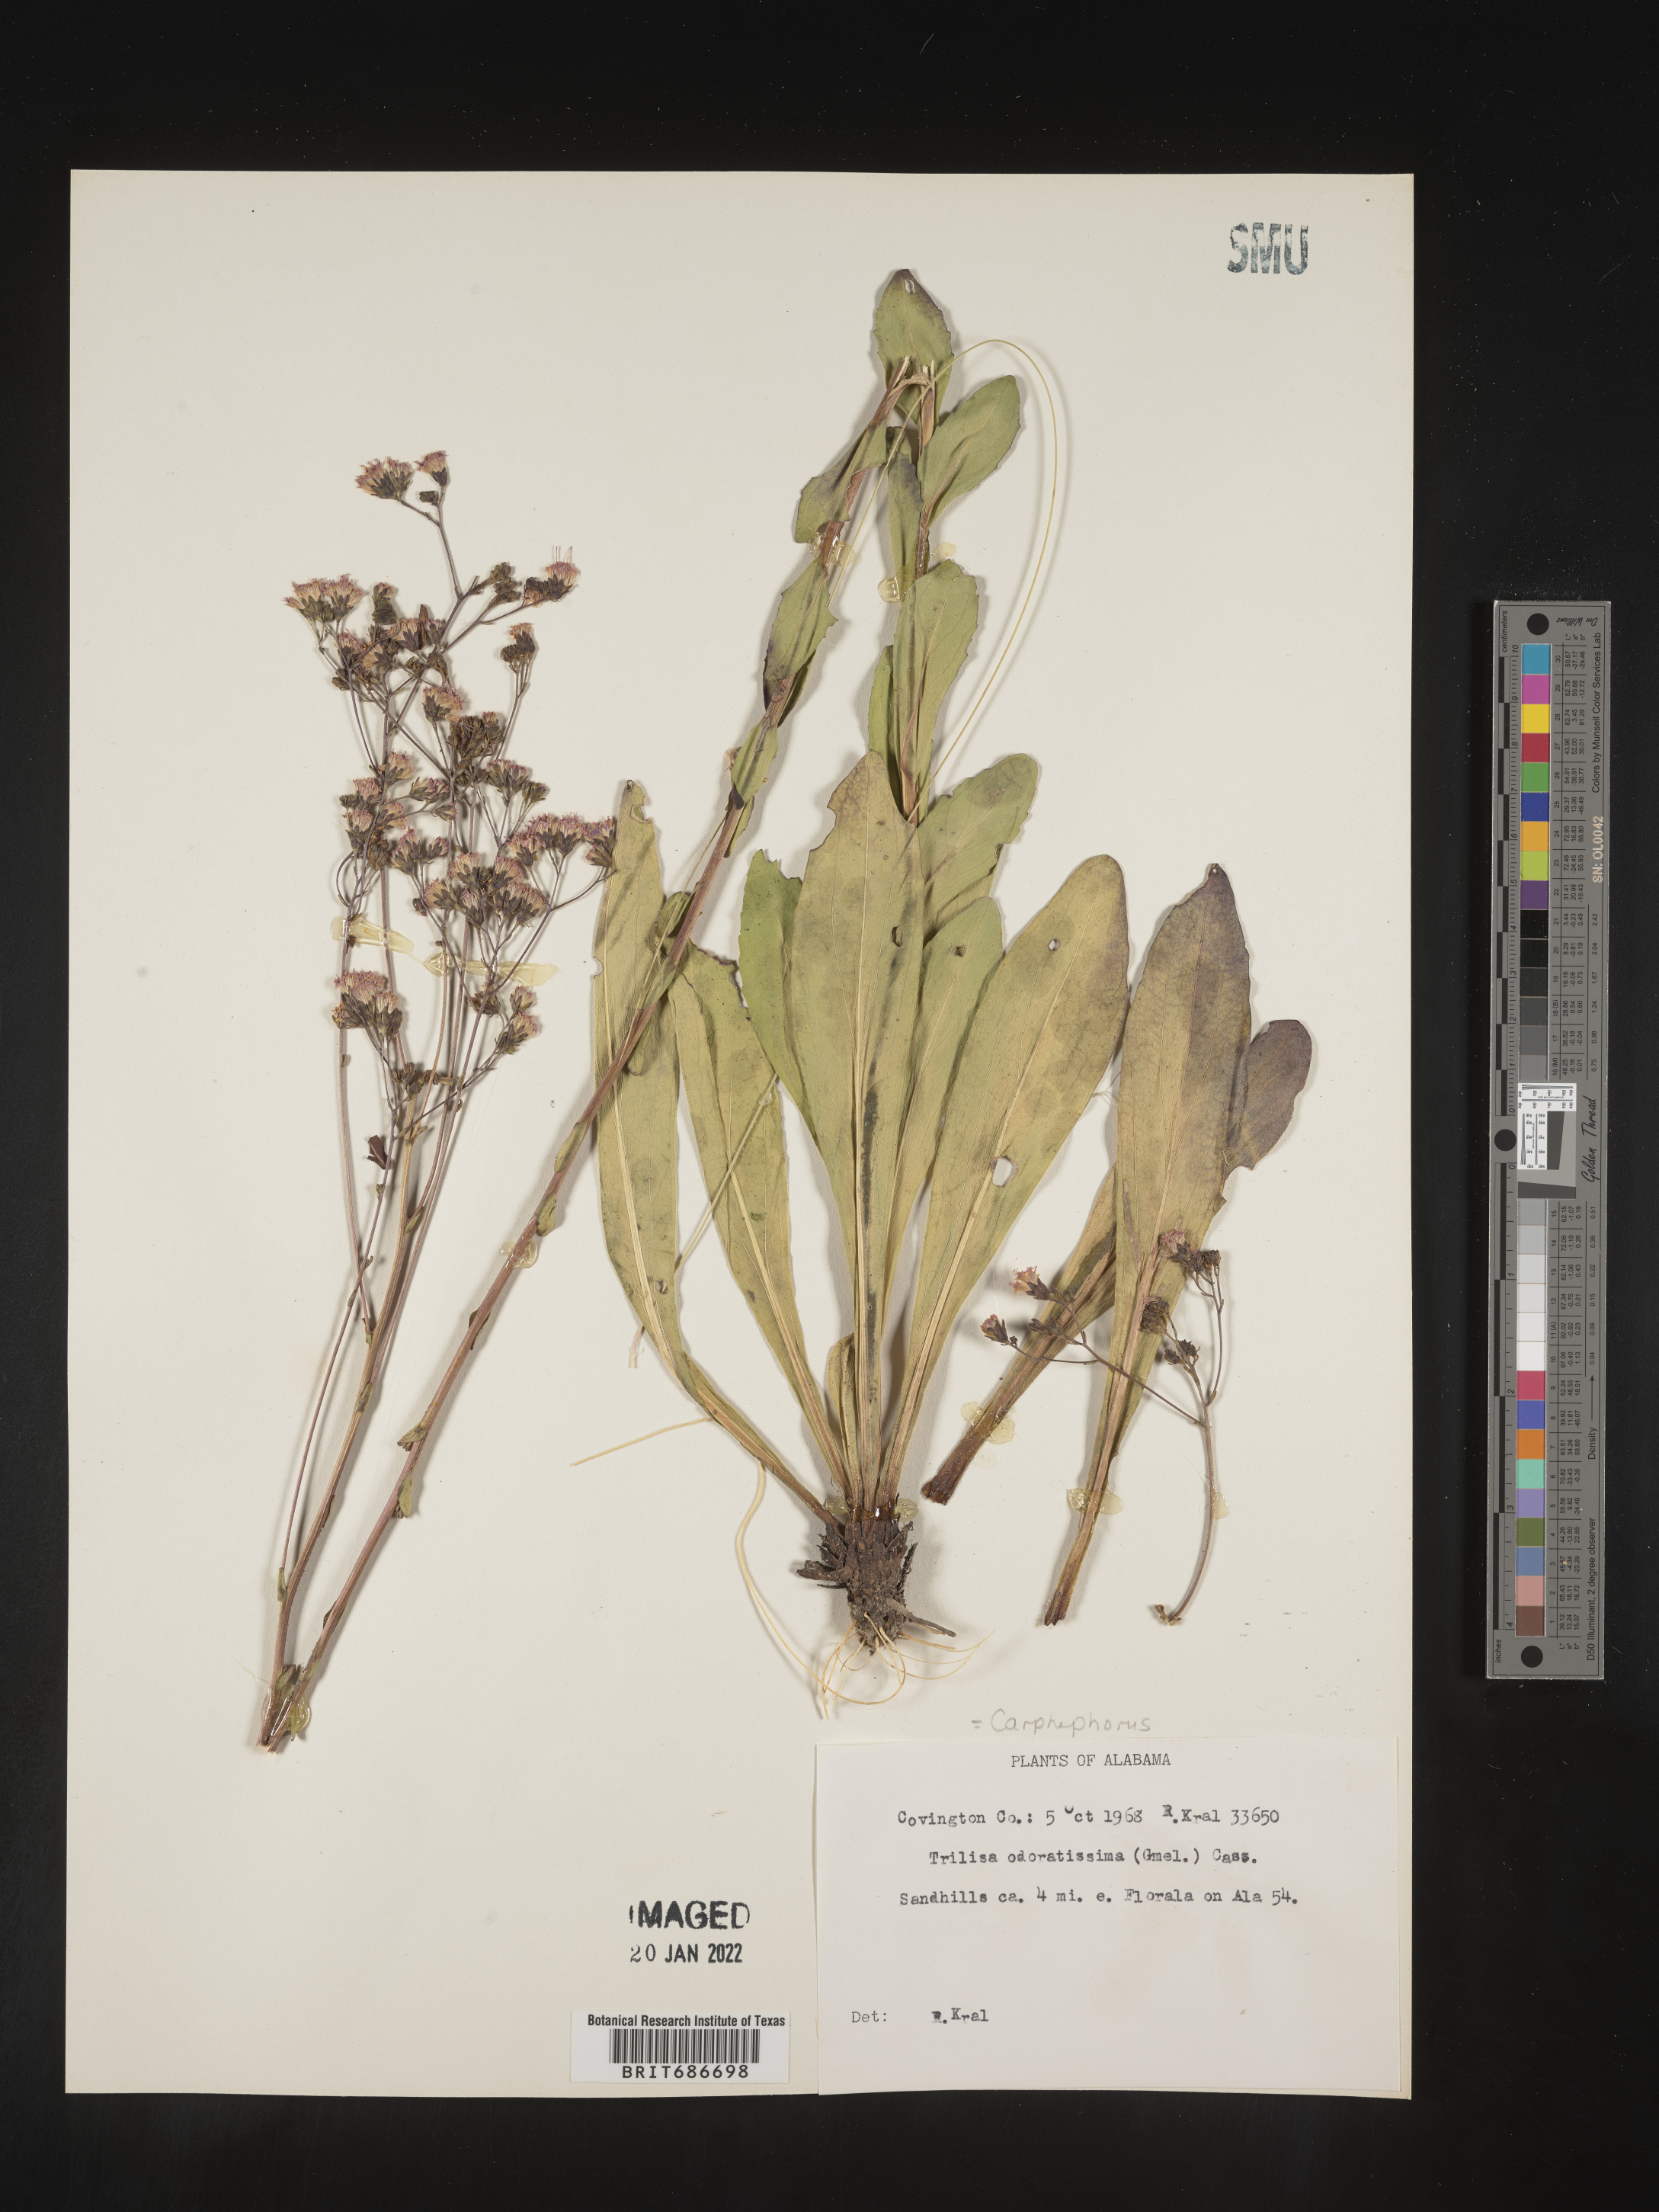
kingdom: Plantae
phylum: Tracheophyta
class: Magnoliopsida
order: Asterales
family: Asteraceae
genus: Carphephorus
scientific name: Carphephorus odoratissimus
